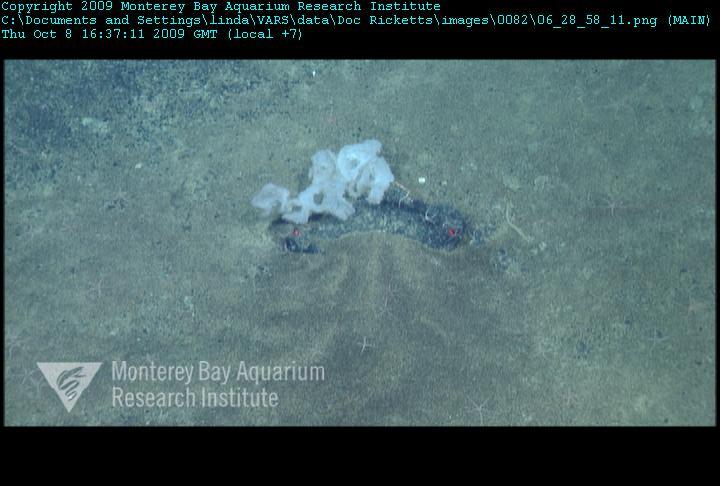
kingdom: Animalia
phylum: Porifera
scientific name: Porifera
